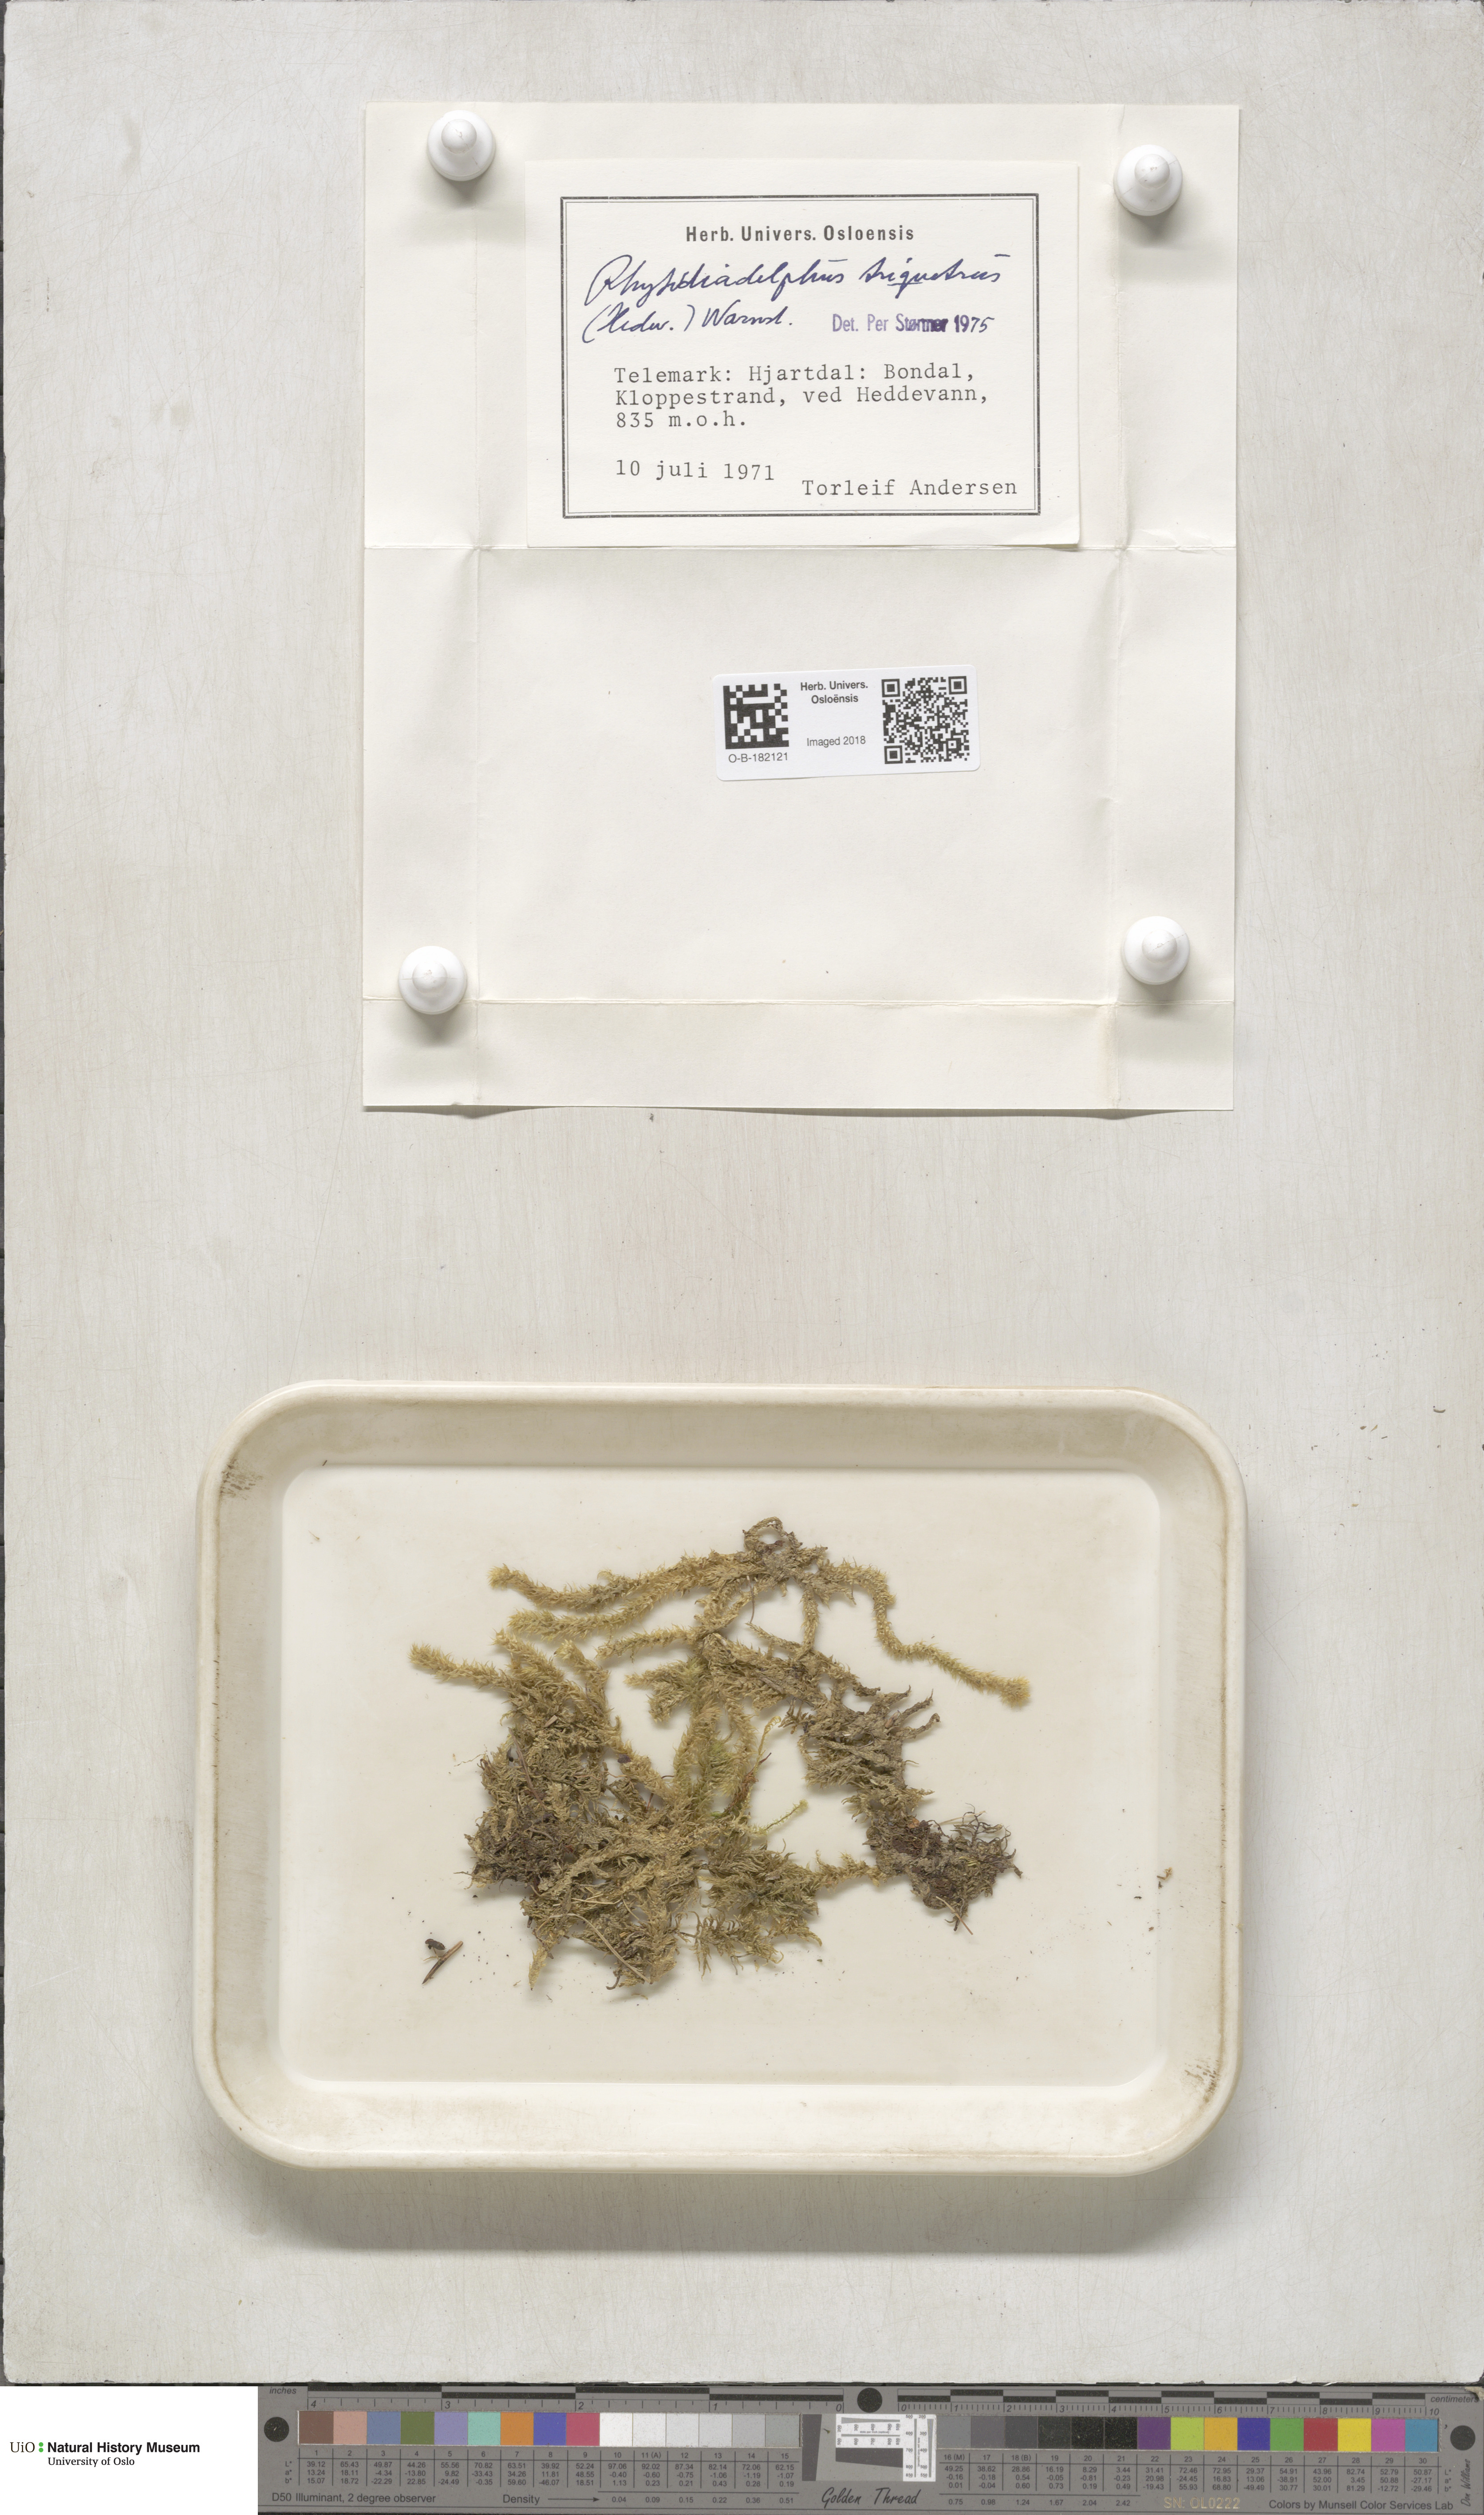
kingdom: Plantae
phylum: Bryophyta
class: Bryopsida
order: Hypnales
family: Hylocomiaceae
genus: Hylocomiadelphus
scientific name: Hylocomiadelphus triquetrus
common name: Rough goose neck moss
